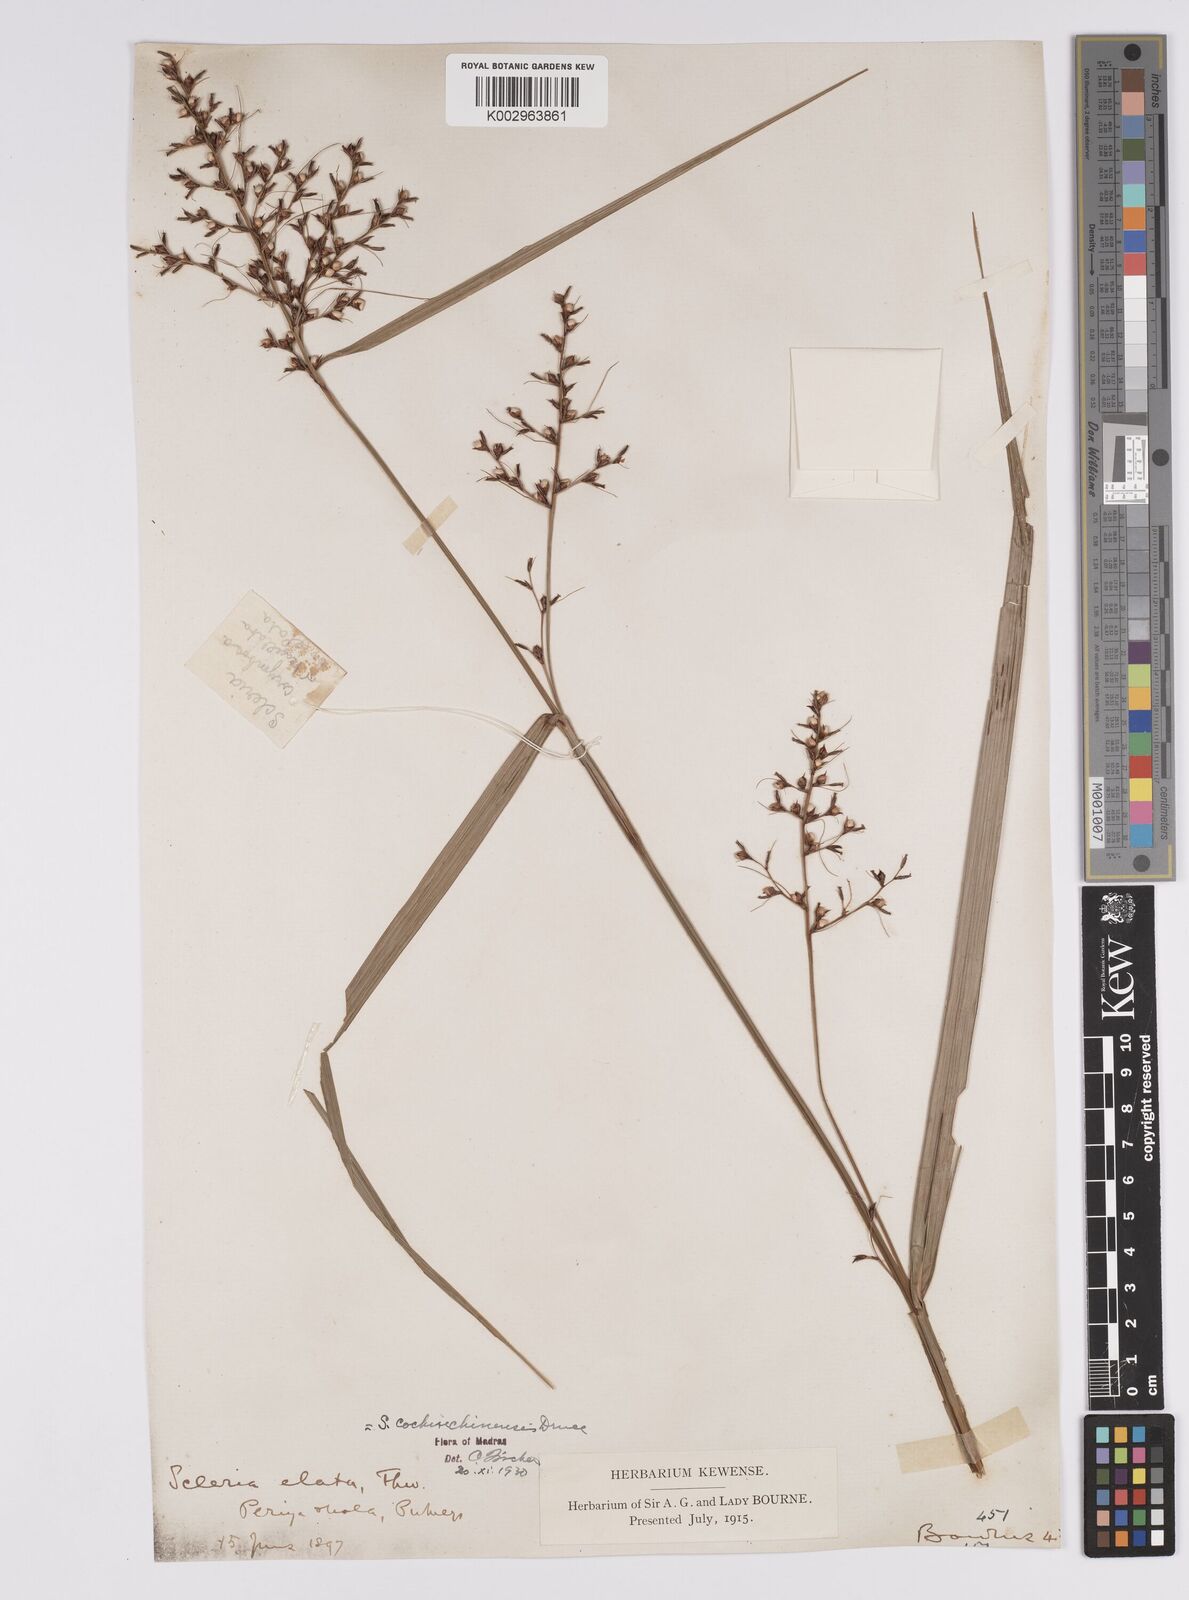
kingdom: Plantae
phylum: Tracheophyta
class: Liliopsida
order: Poales
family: Cyperaceae
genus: Scleria
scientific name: Scleria terrestris
